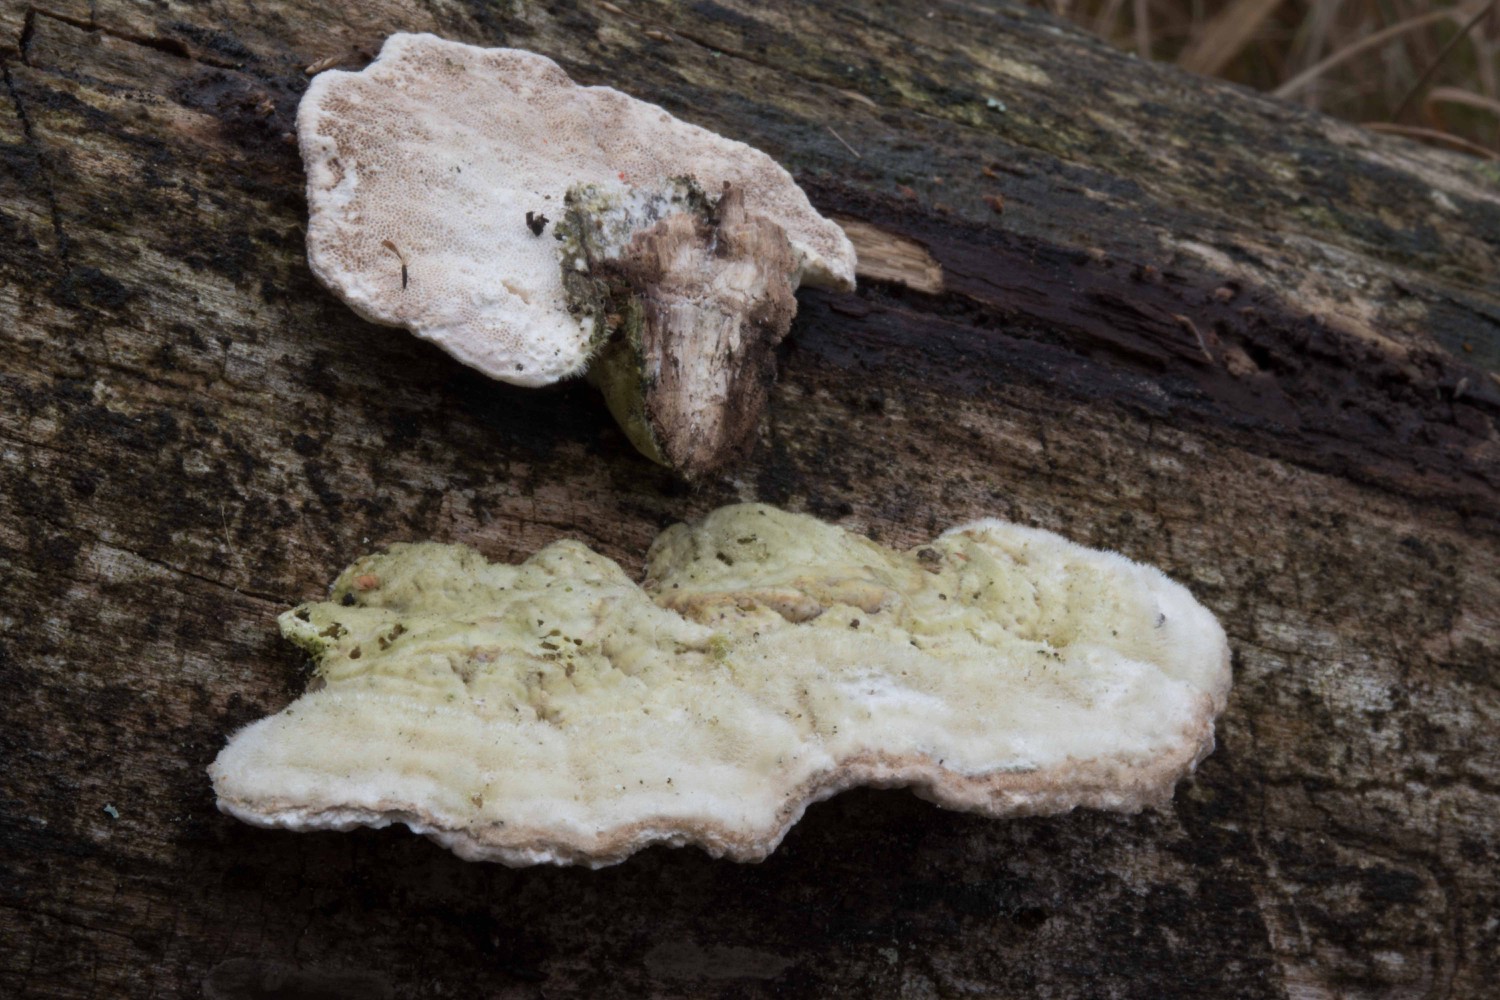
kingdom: Fungi
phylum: Basidiomycota
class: Agaricomycetes
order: Polyporales
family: Polyporaceae
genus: Trametes
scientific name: Trametes hirsuta
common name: håret læderporesvamp
